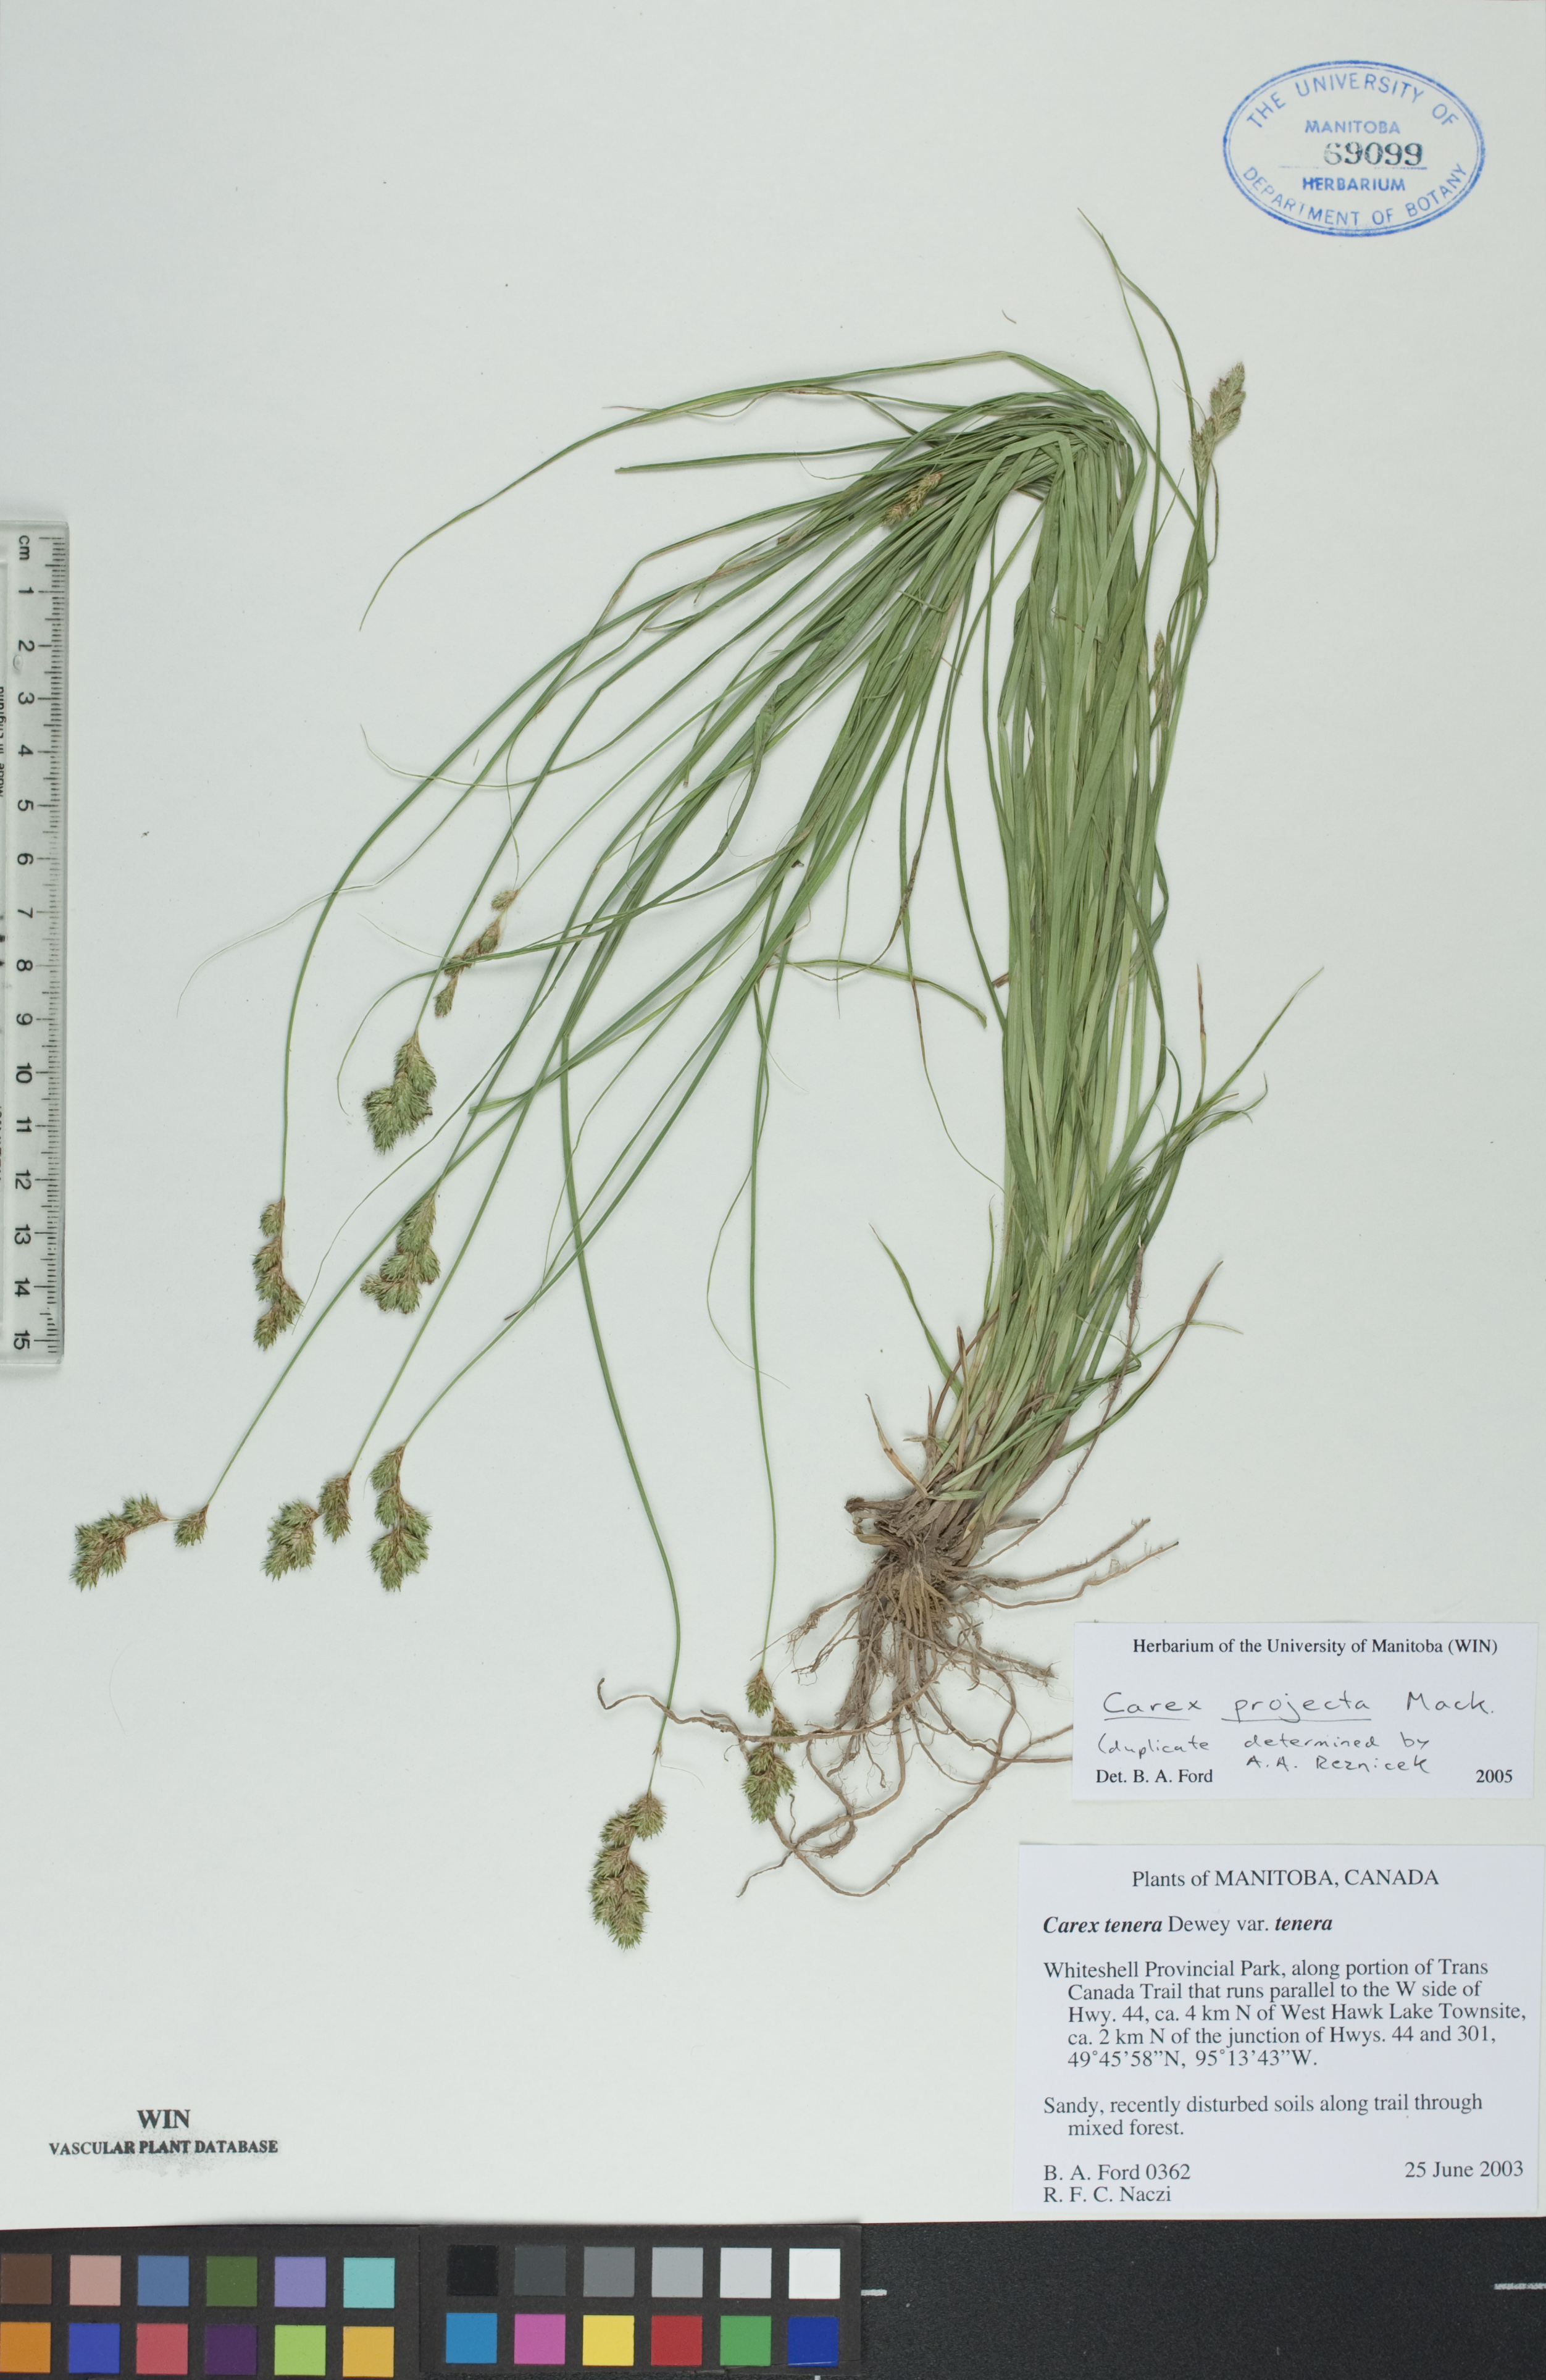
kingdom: Plantae
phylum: Tracheophyta
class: Liliopsida
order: Poales
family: Cyperaceae
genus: Carex
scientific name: Carex projecta
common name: Loose-headed oval sedge
